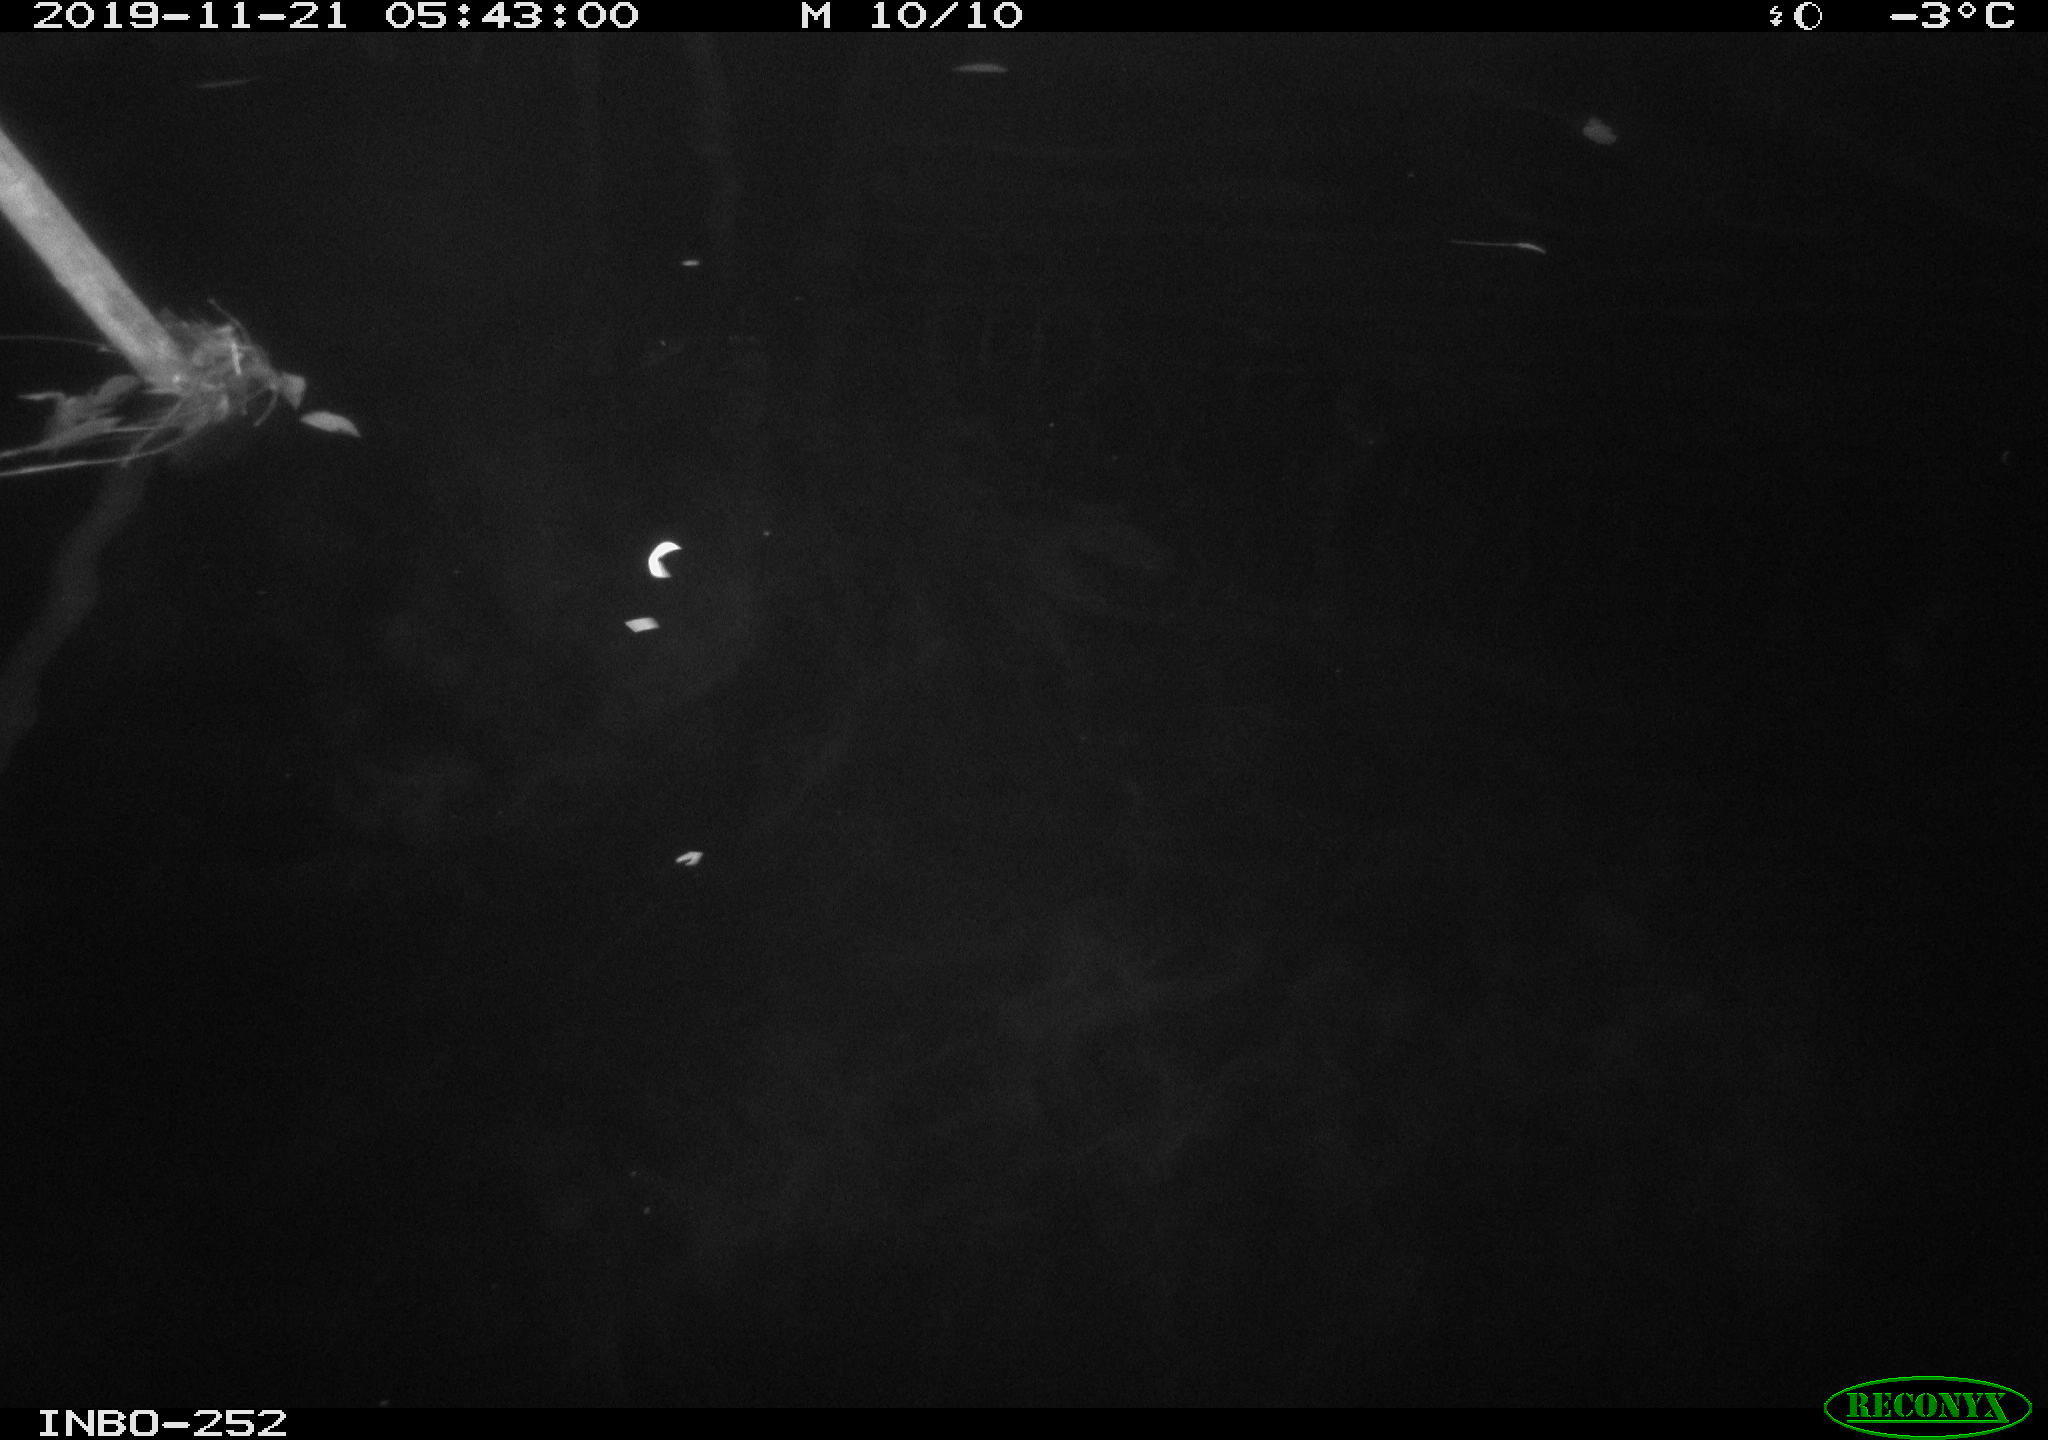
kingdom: Animalia
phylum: Chordata
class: Aves
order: Anseriformes
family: Anatidae
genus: Anas
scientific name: Anas platyrhynchos
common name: Mallard
